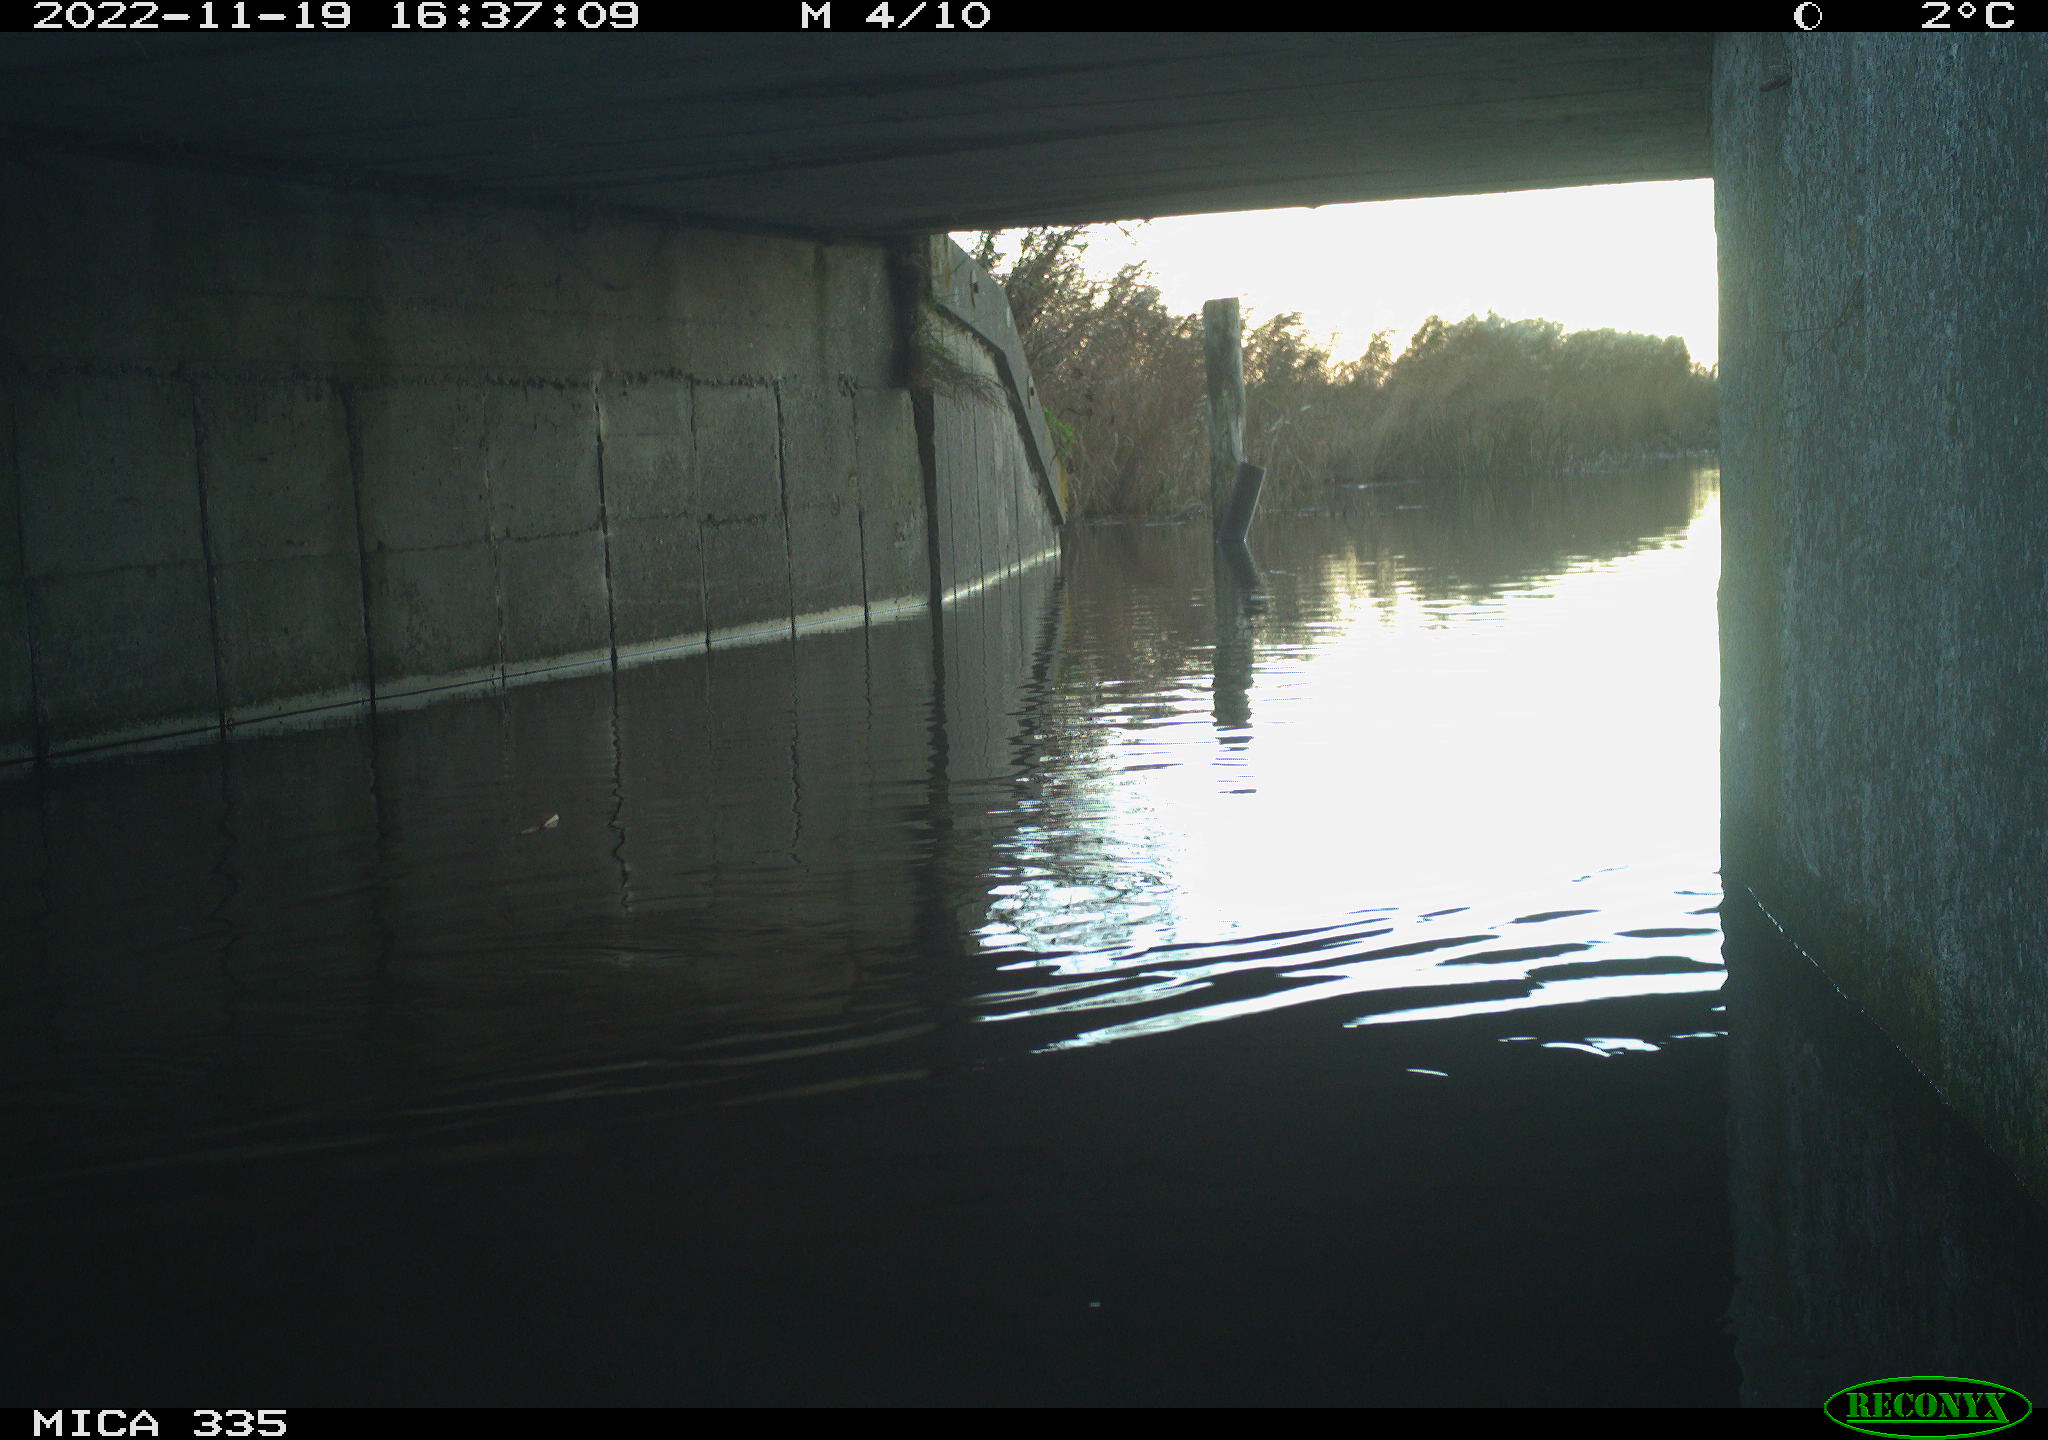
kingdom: Animalia
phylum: Chordata
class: Aves
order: Anseriformes
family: Anatidae
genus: Anas
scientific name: Anas platyrhynchos
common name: Mallard
